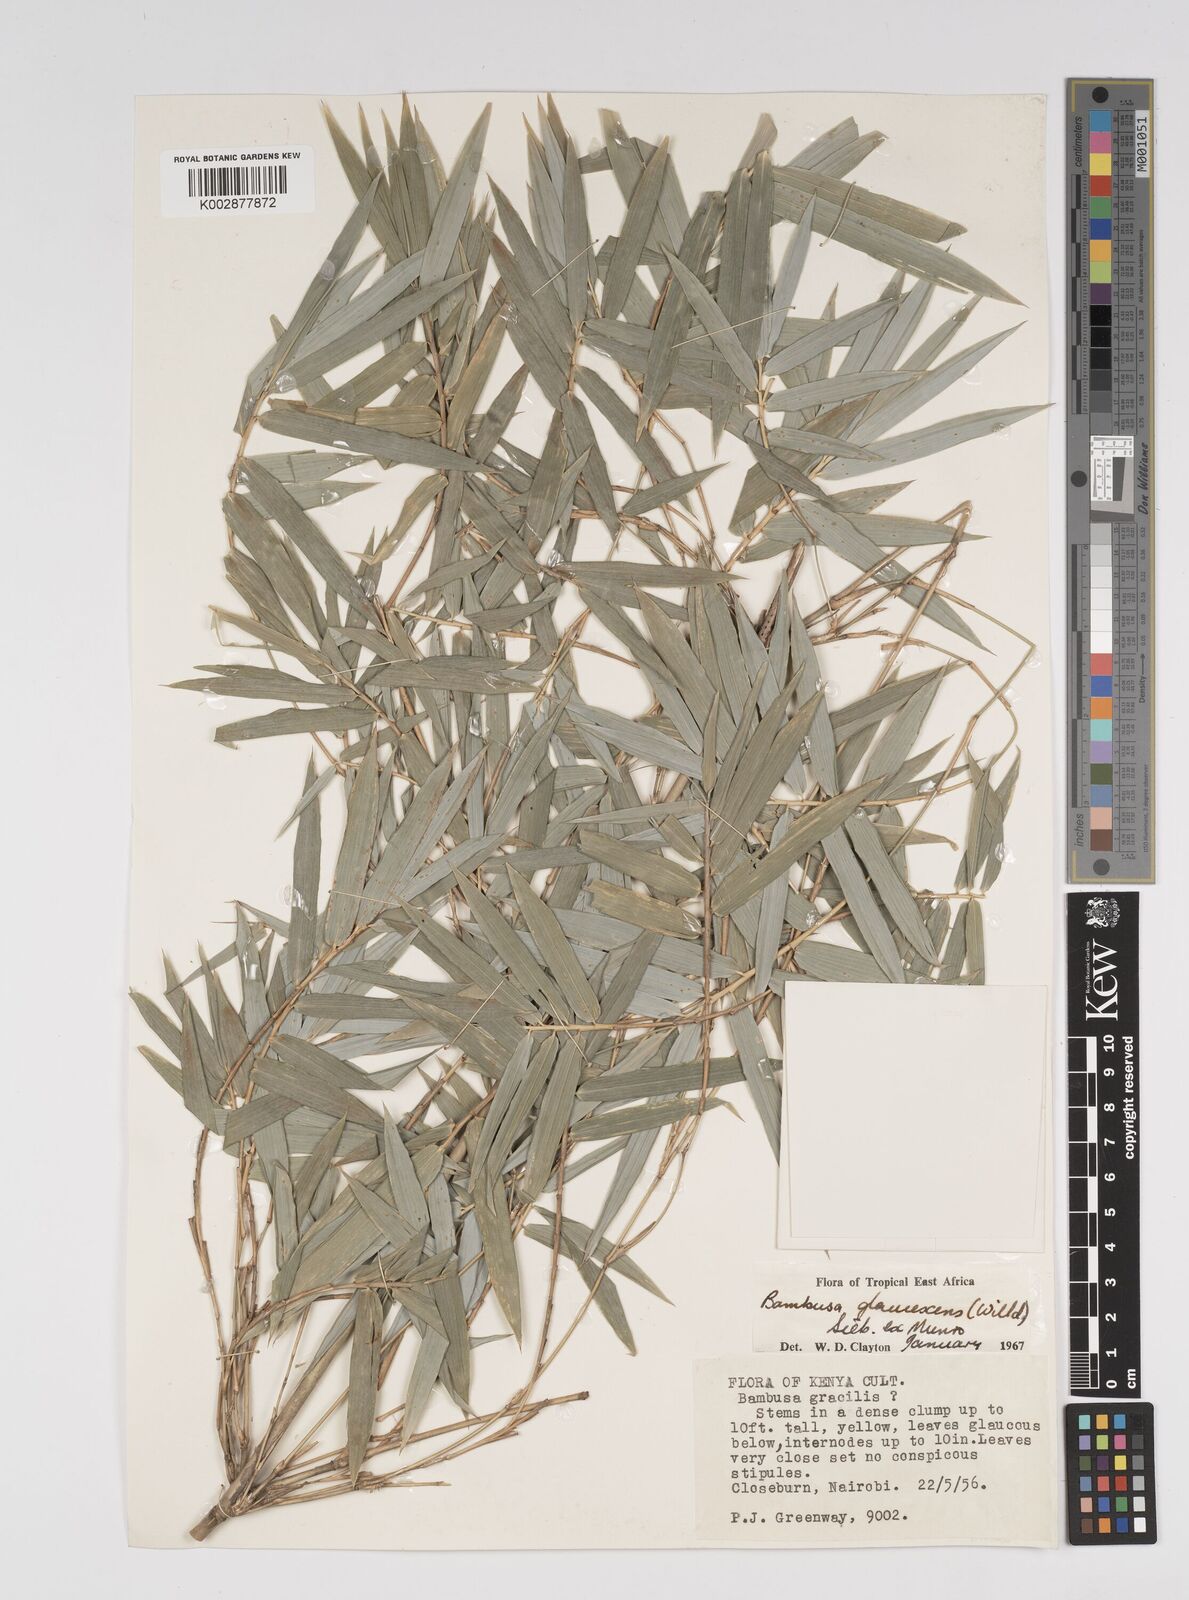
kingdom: Plantae
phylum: Tracheophyta
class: Liliopsida
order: Poales
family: Poaceae
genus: Bambusa
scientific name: Bambusa multiplex
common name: Hedge bamboo
